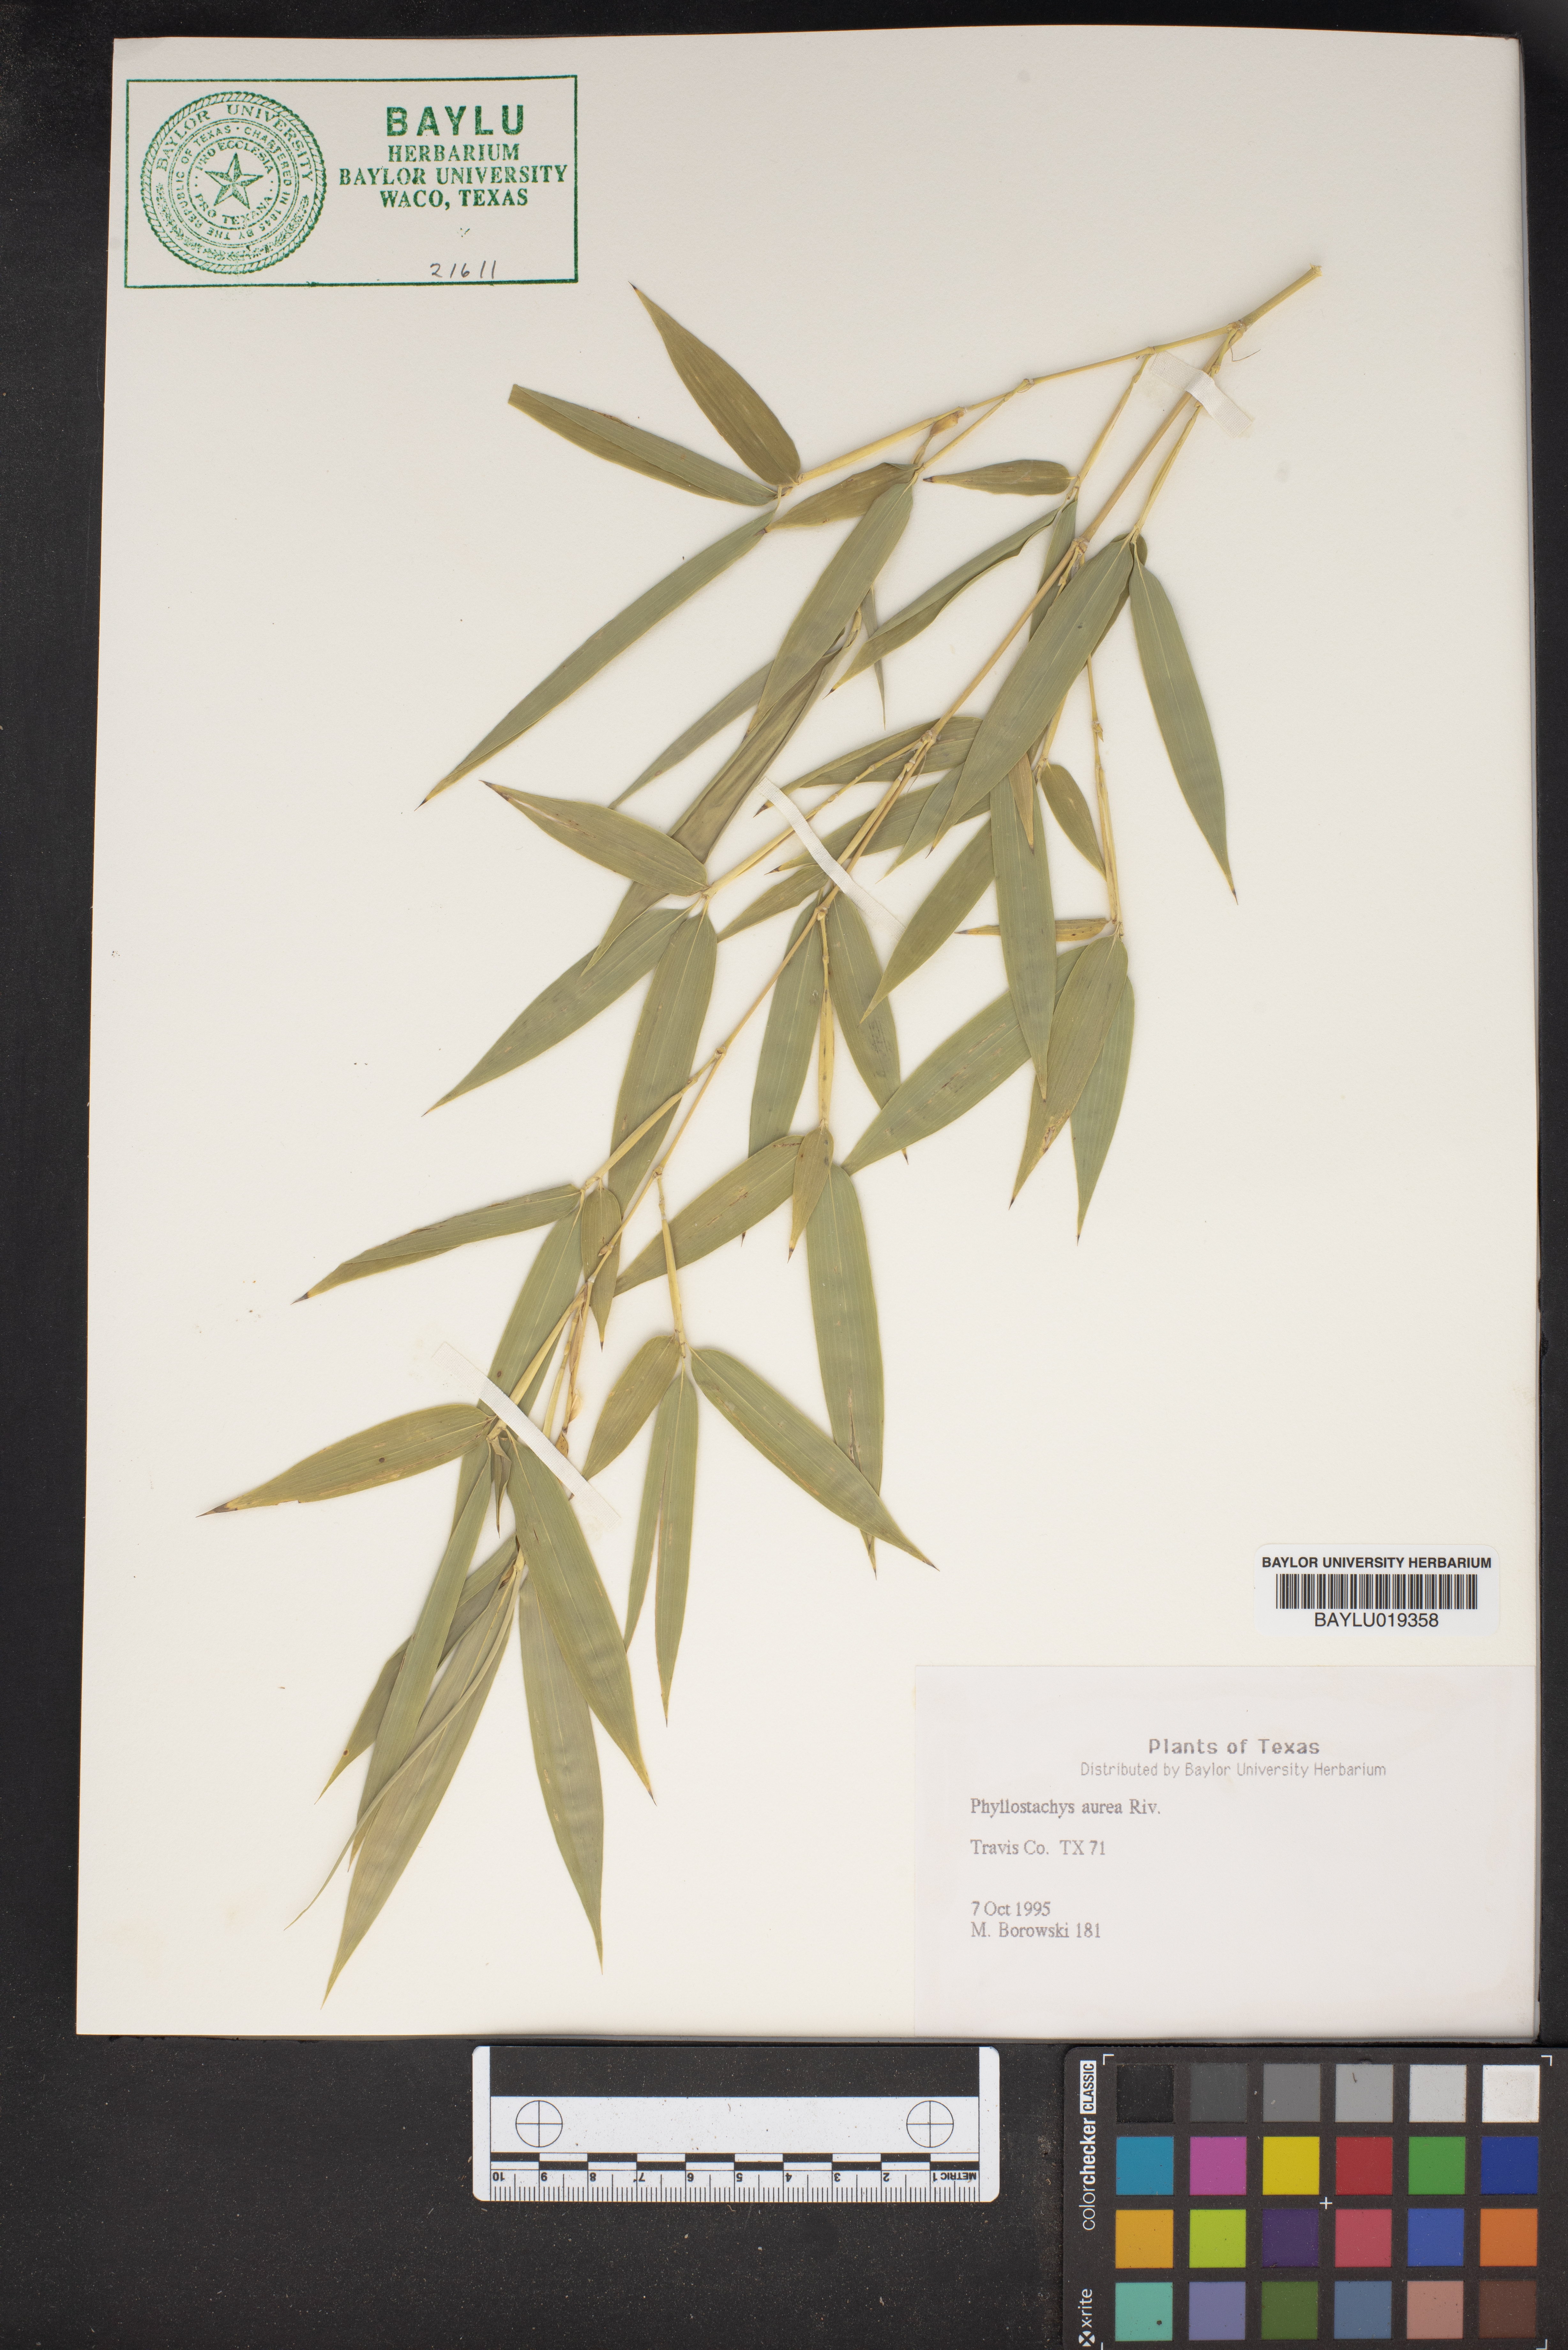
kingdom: Plantae
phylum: Tracheophyta
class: Liliopsida
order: Poales
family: Poaceae
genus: Phyllostachys
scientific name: Phyllostachys aurea
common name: Golden bamboo
